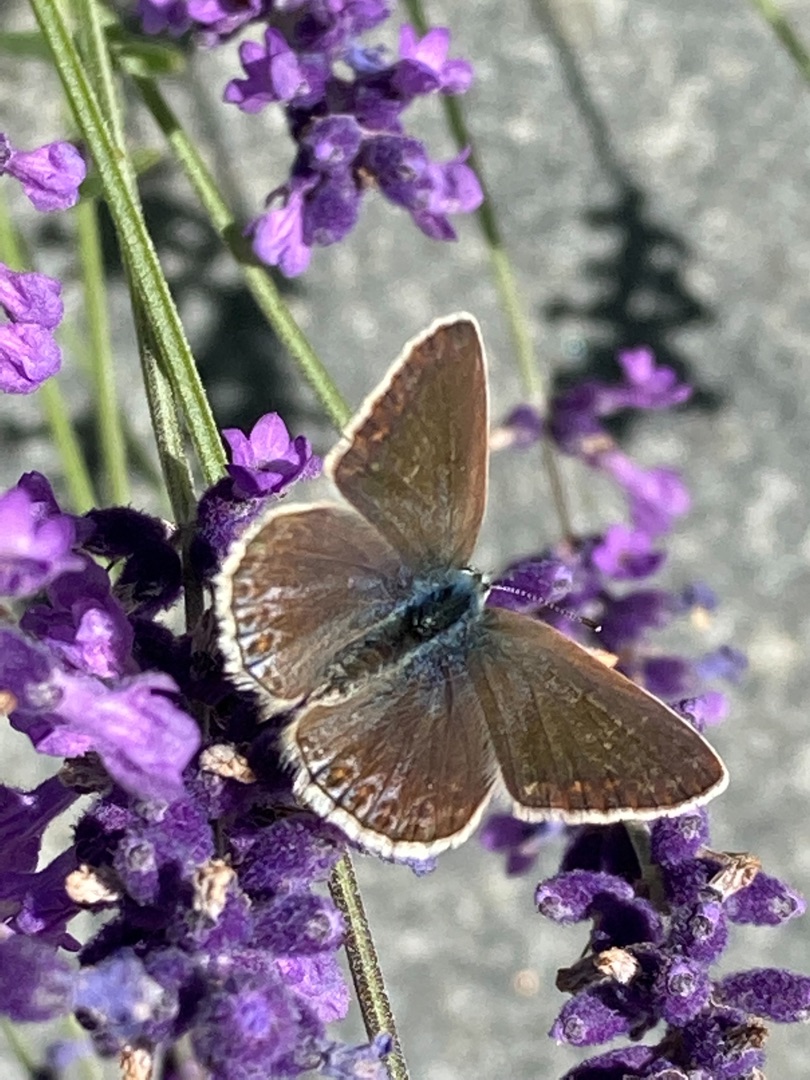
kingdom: Animalia
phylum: Arthropoda
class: Insecta
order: Lepidoptera
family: Lycaenidae
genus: Polyommatus
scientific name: Polyommatus icarus
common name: Almindelig blåfugl
